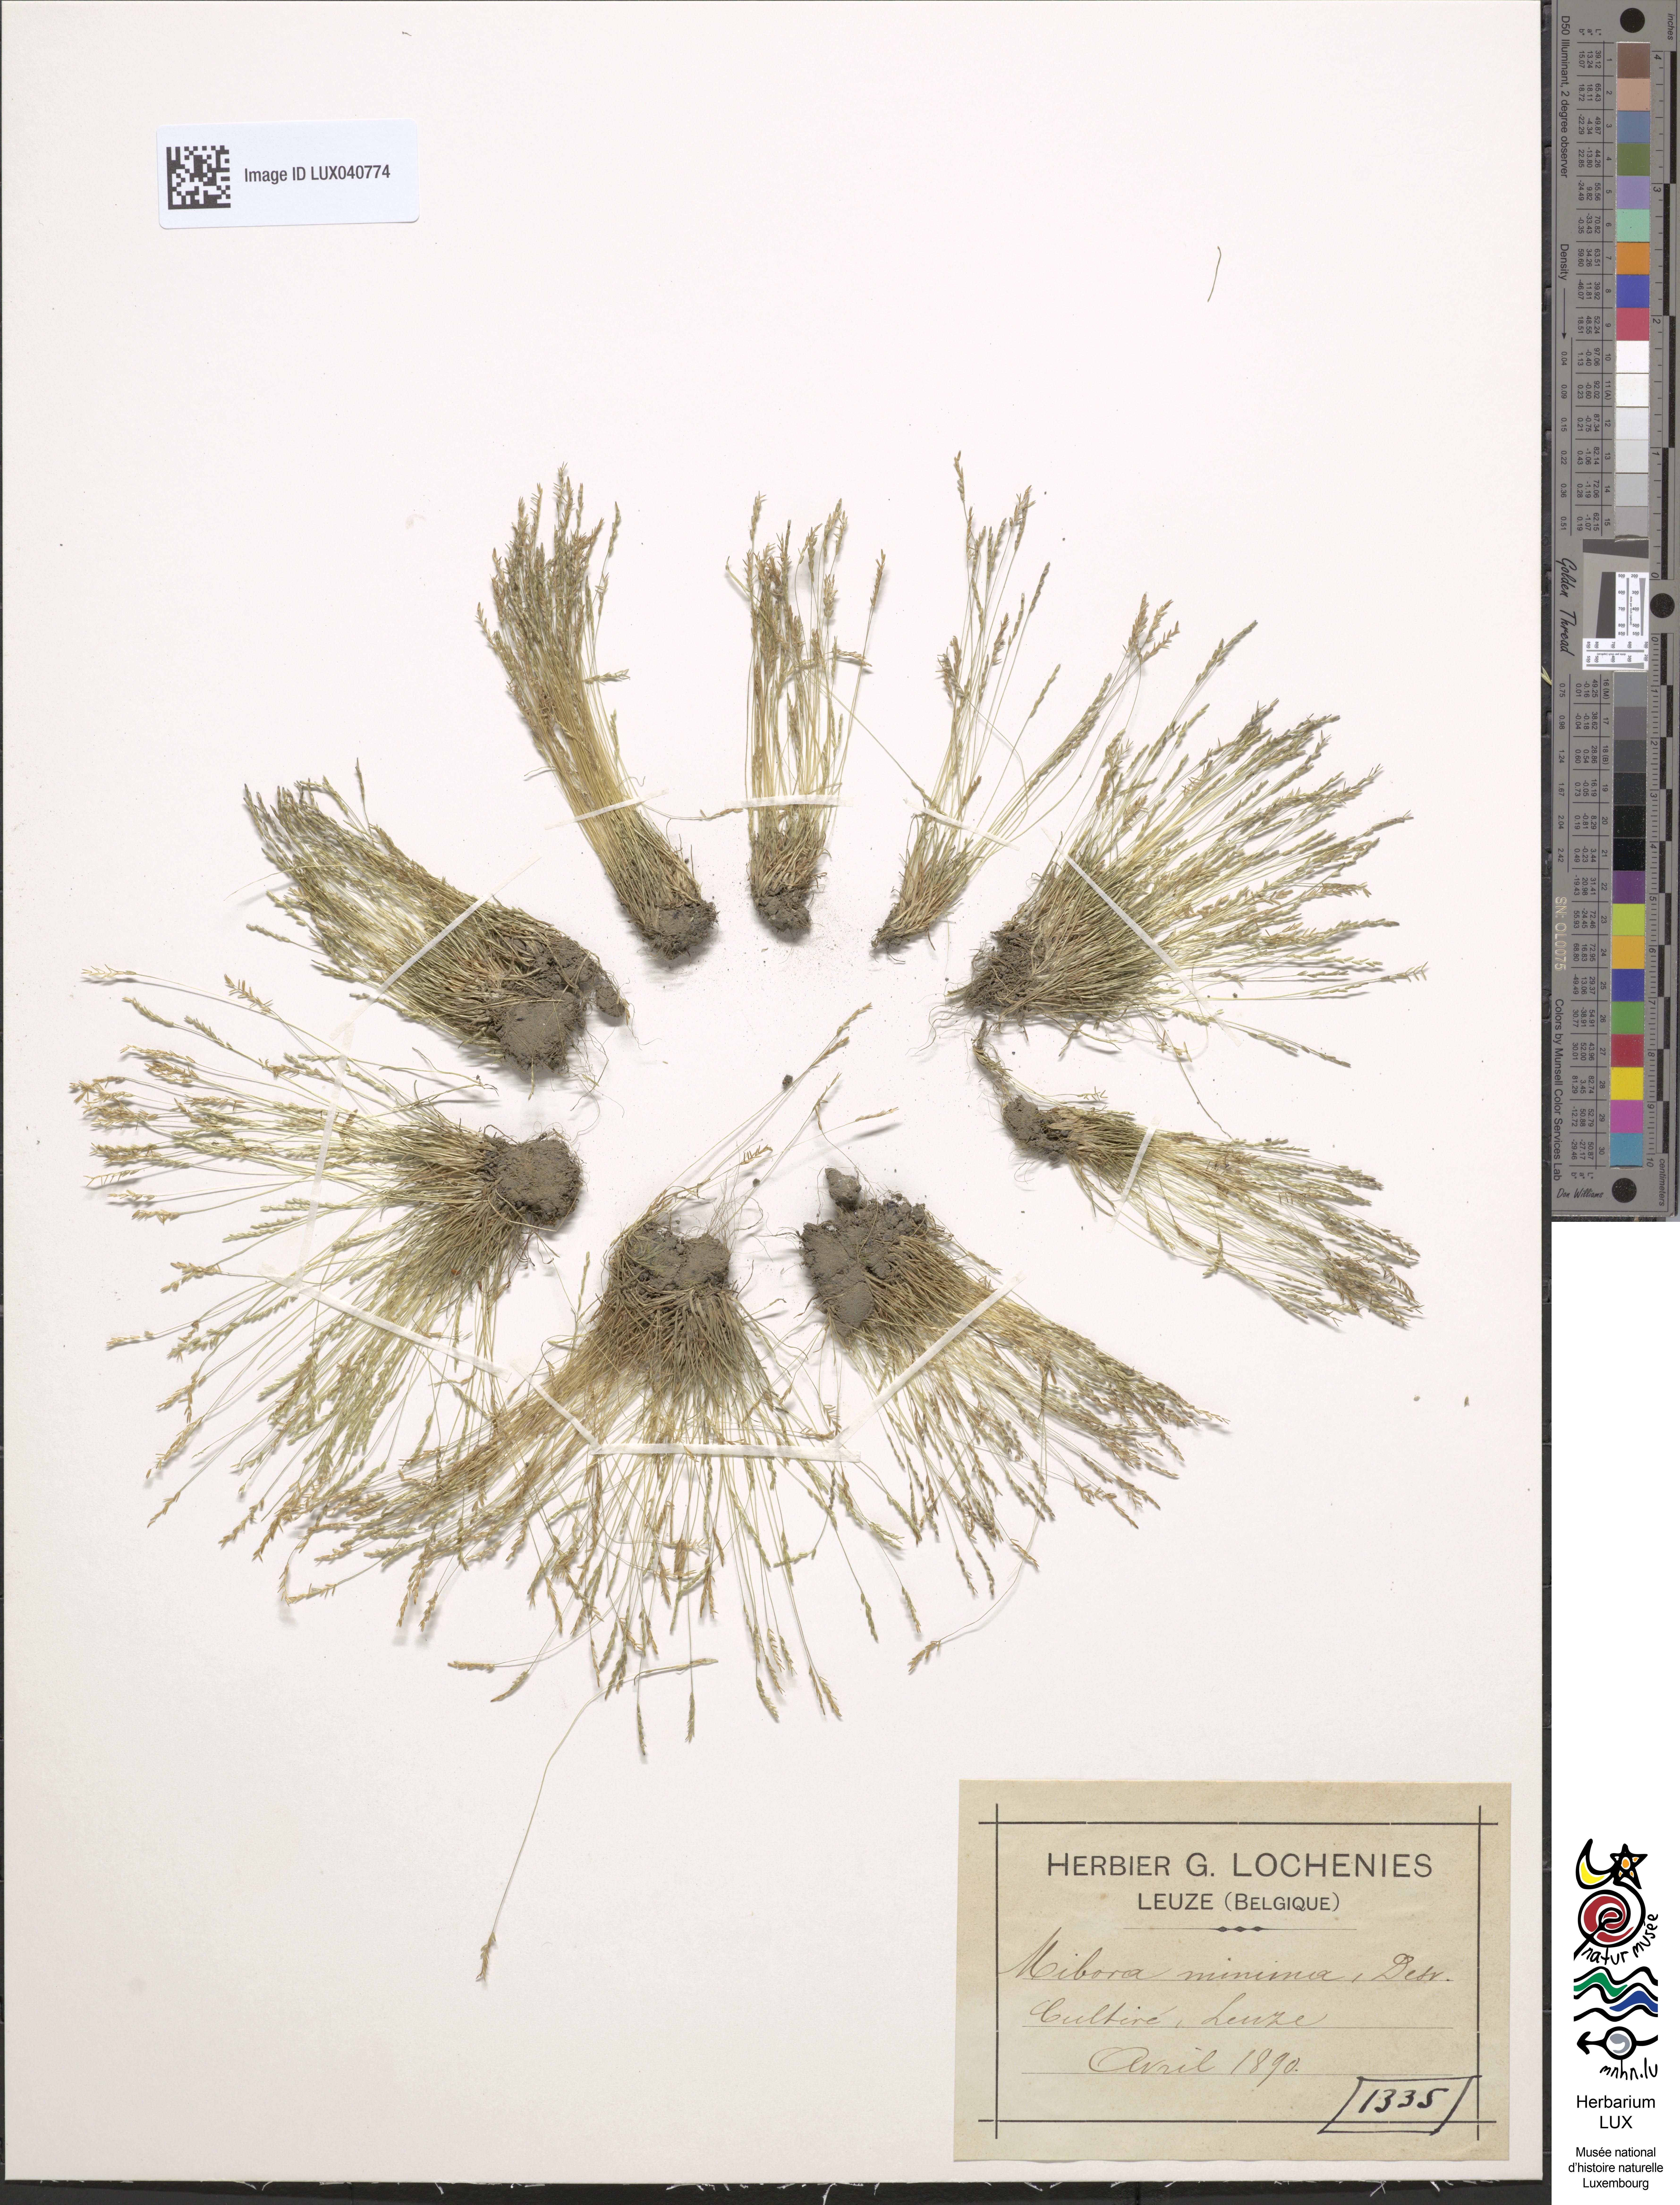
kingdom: Plantae
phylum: Tracheophyta
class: Liliopsida
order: Poales
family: Poaceae
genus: Mibora
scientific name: Mibora minima
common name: Early sand-grass
